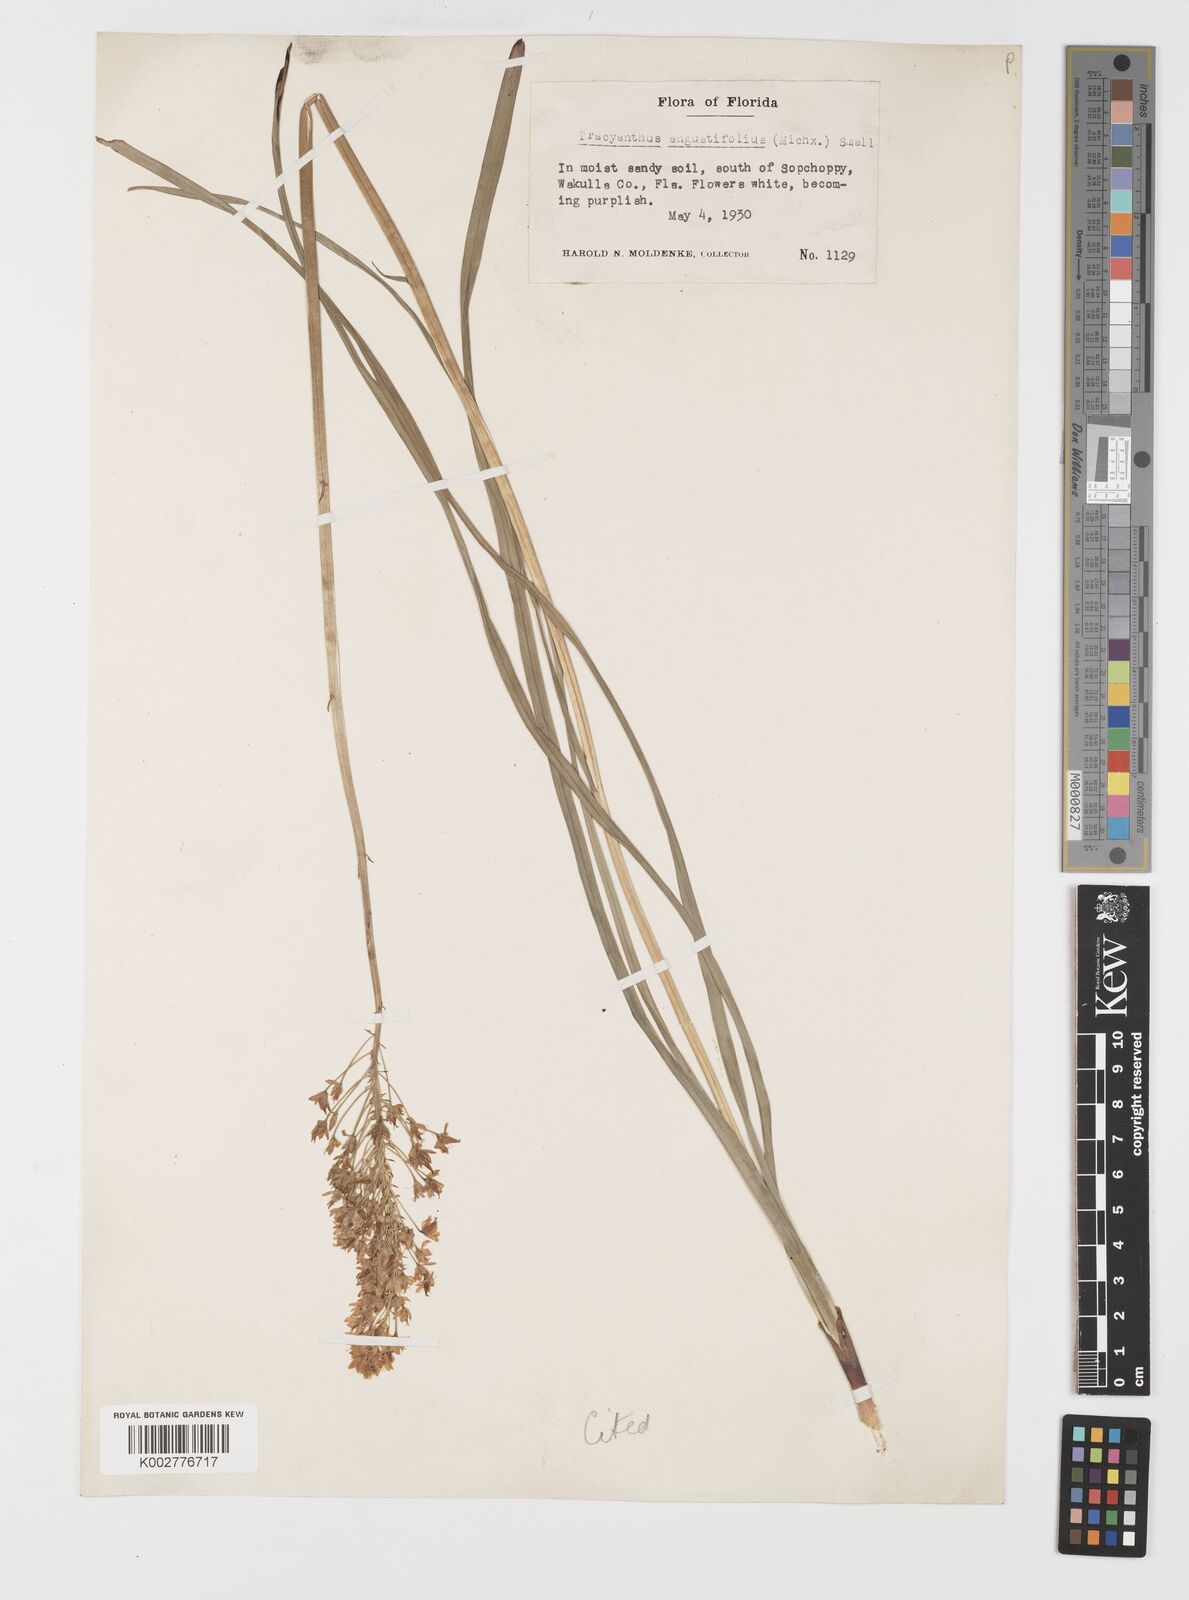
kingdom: Plantae
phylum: Tracheophyta
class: Liliopsida
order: Liliales
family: Melanthiaceae
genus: Stenanthium
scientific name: Stenanthium densum
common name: Crow-poison
